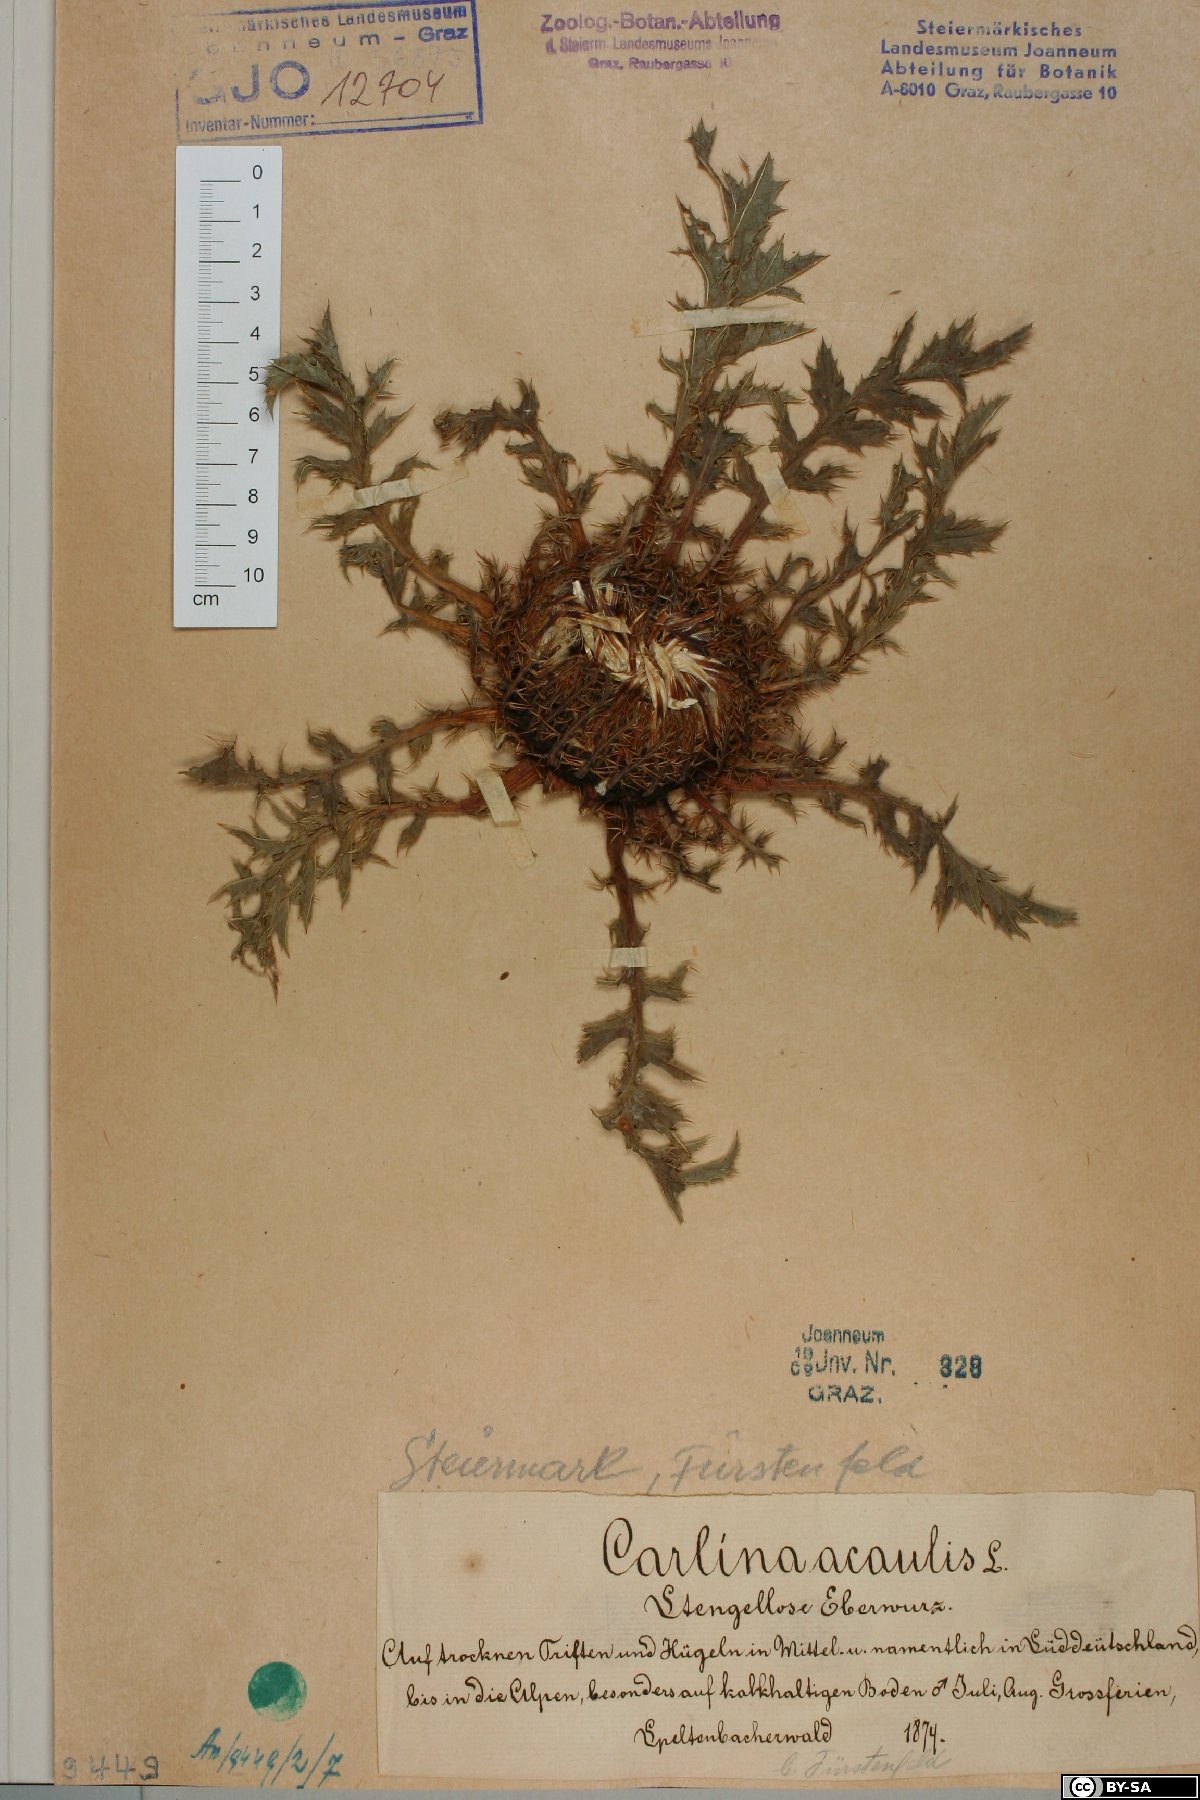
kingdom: Plantae
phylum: Tracheophyta
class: Magnoliopsida
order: Asterales
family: Asteraceae
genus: Carlina
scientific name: Carlina acaulis
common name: Stemless carline thistle
